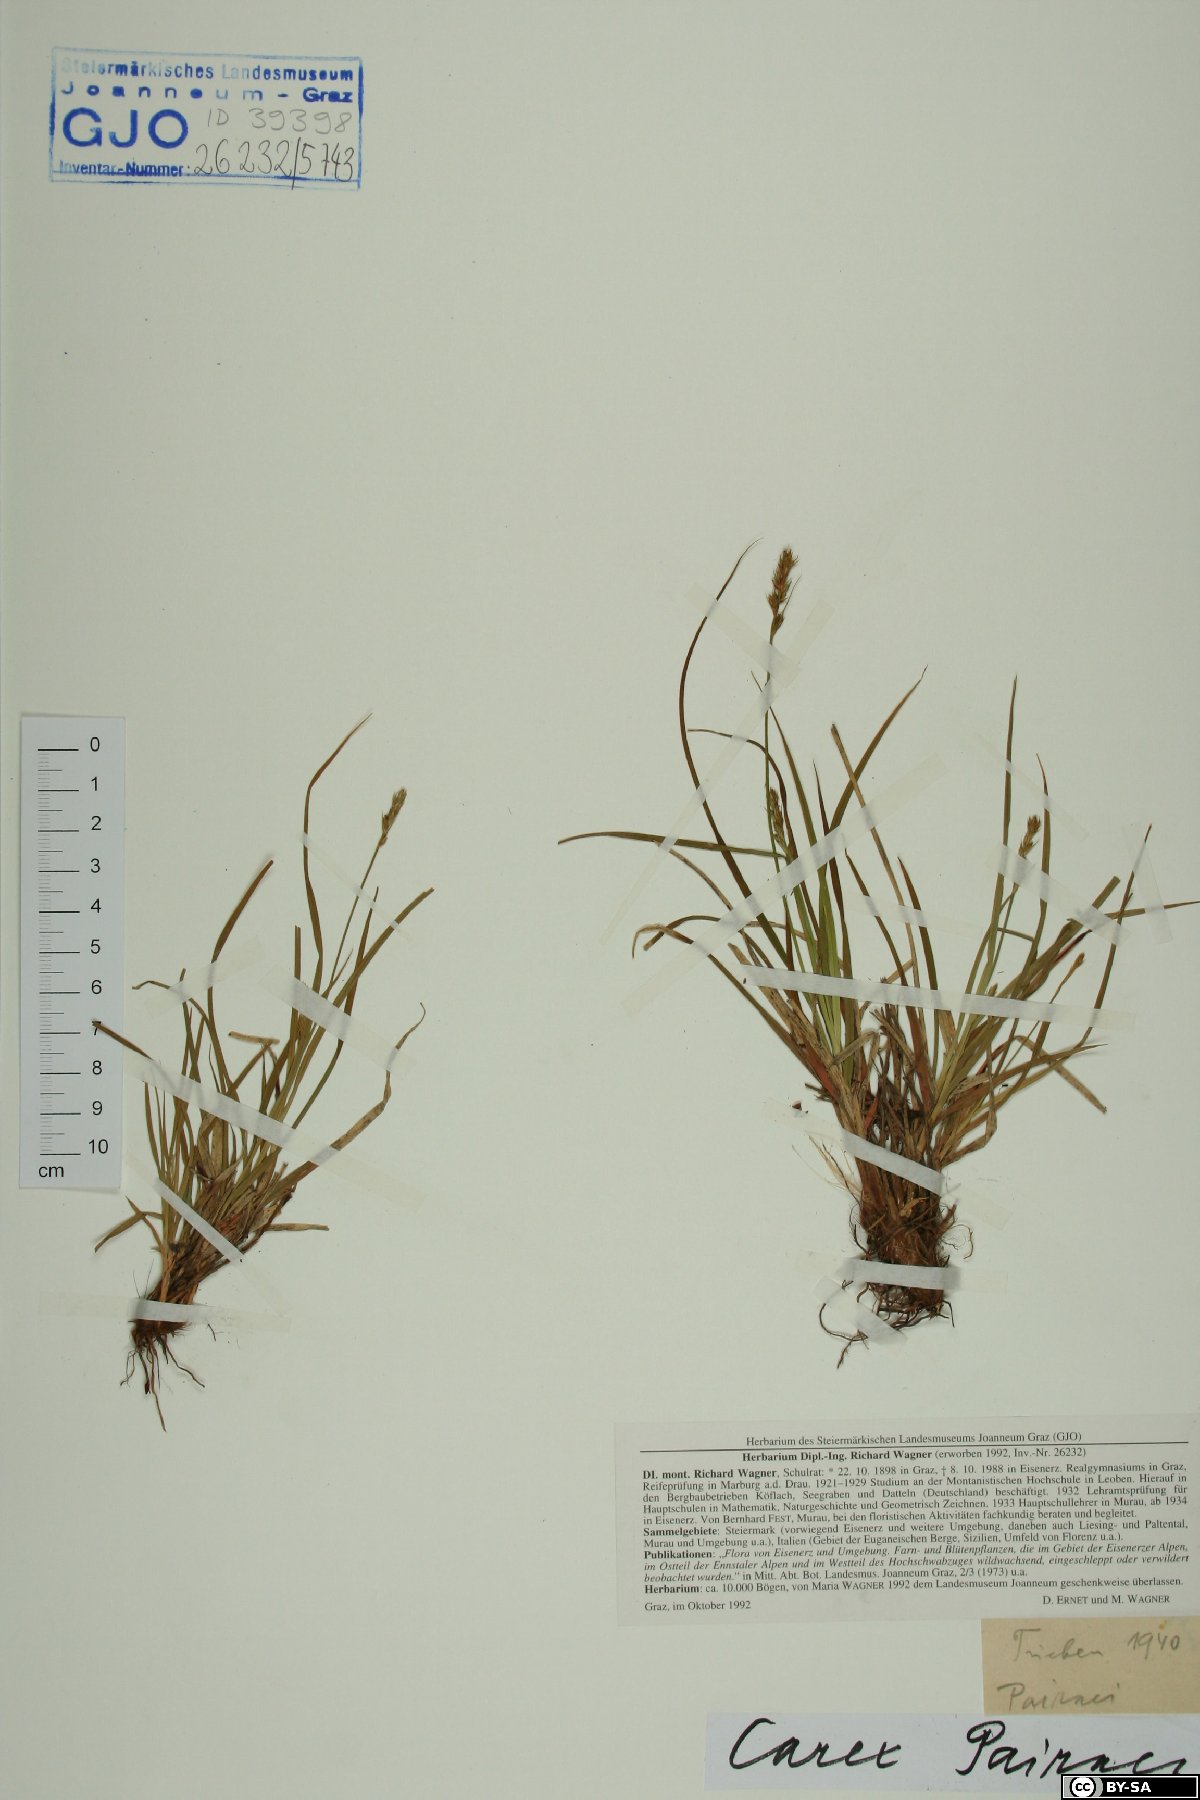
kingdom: Plantae
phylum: Tracheophyta
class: Liliopsida
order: Poales
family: Cyperaceae
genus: Carex
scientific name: Carex pairae
